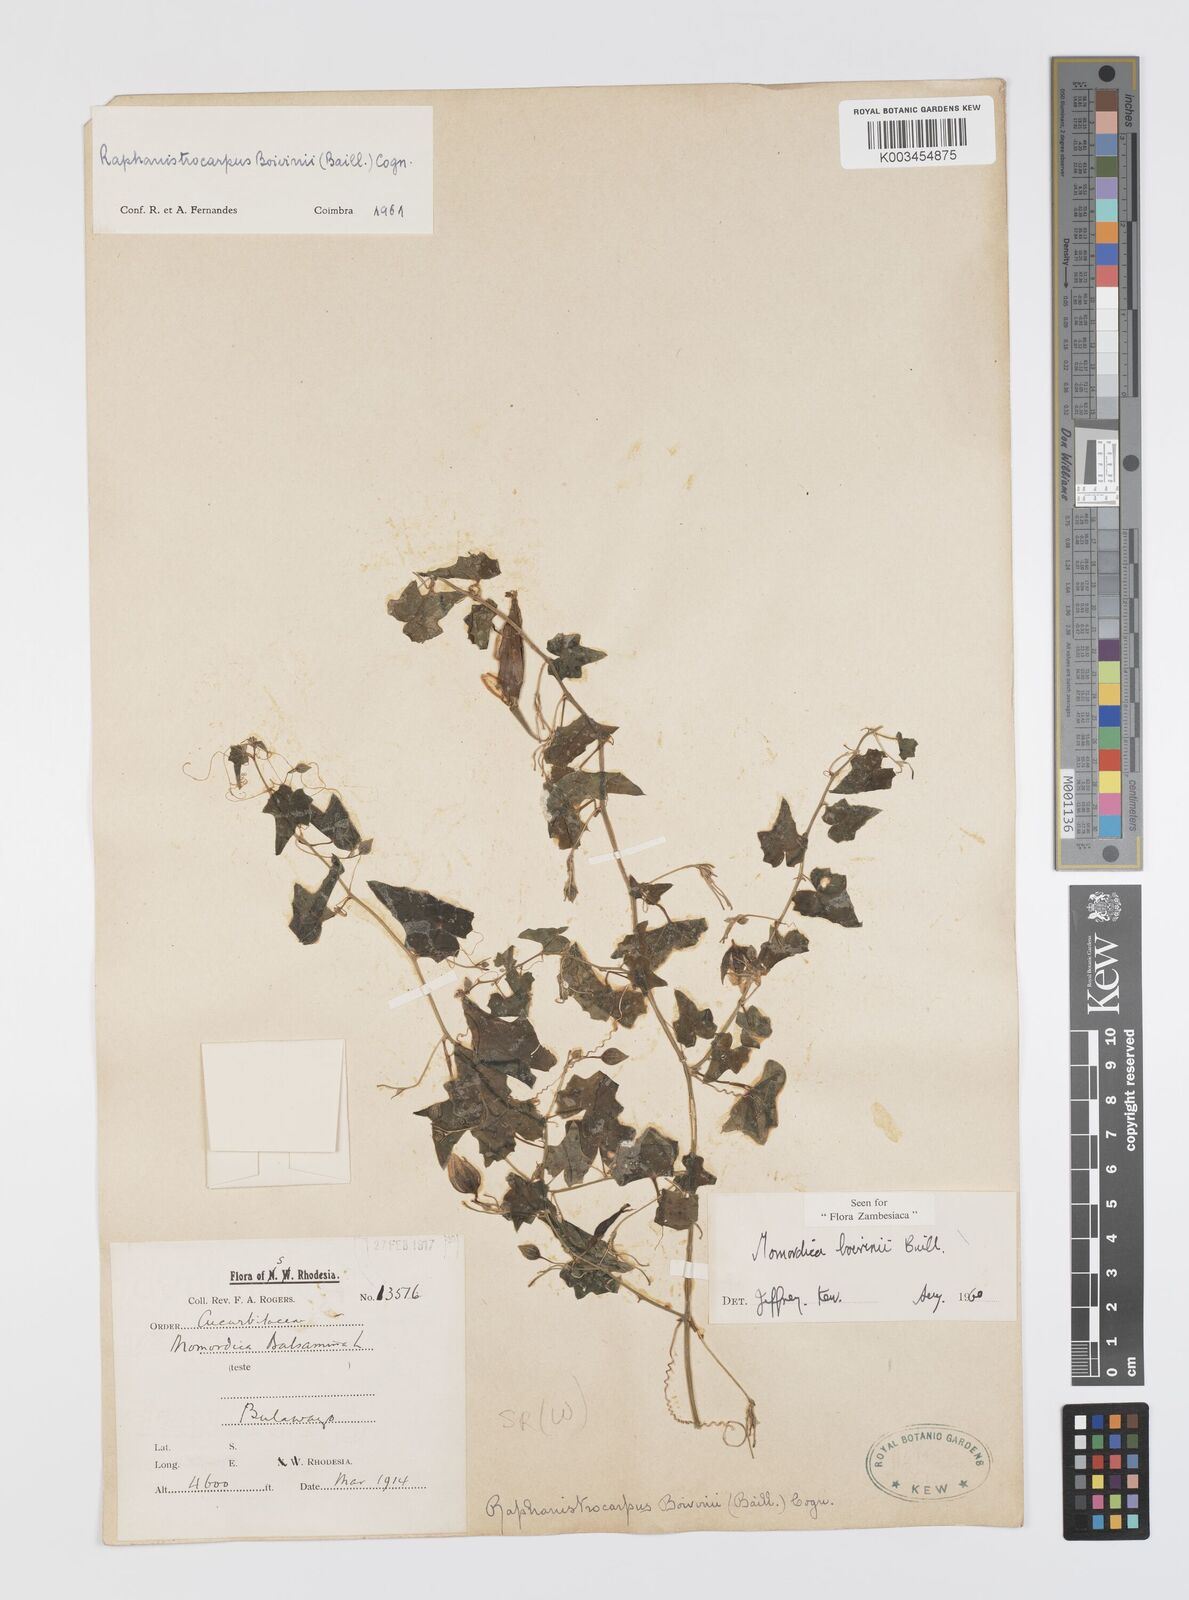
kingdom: Plantae
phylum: Tracheophyta
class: Magnoliopsida
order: Cucurbitales
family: Cucurbitaceae
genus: Momordica
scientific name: Momordica boivinii
